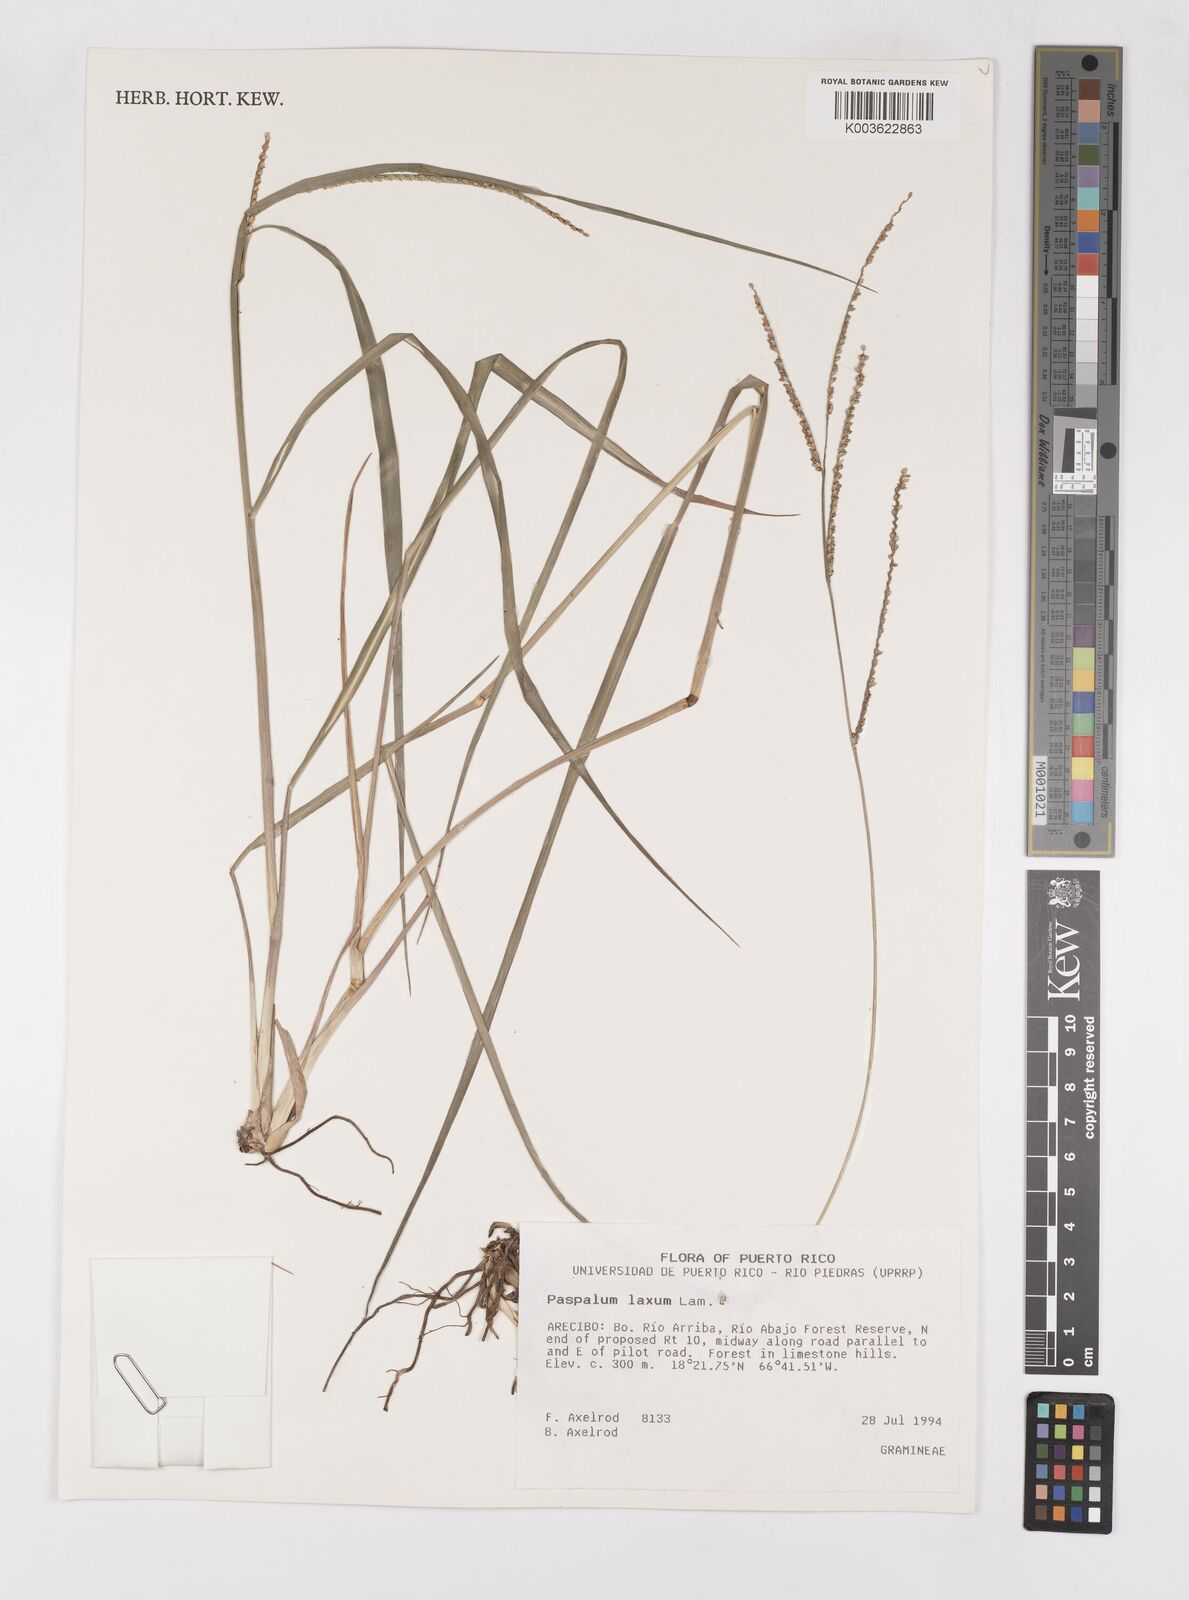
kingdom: Plantae
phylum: Tracheophyta
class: Liliopsida
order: Poales
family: Poaceae
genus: Paspalum
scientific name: Paspalum laxum
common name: Coconut paspalum
